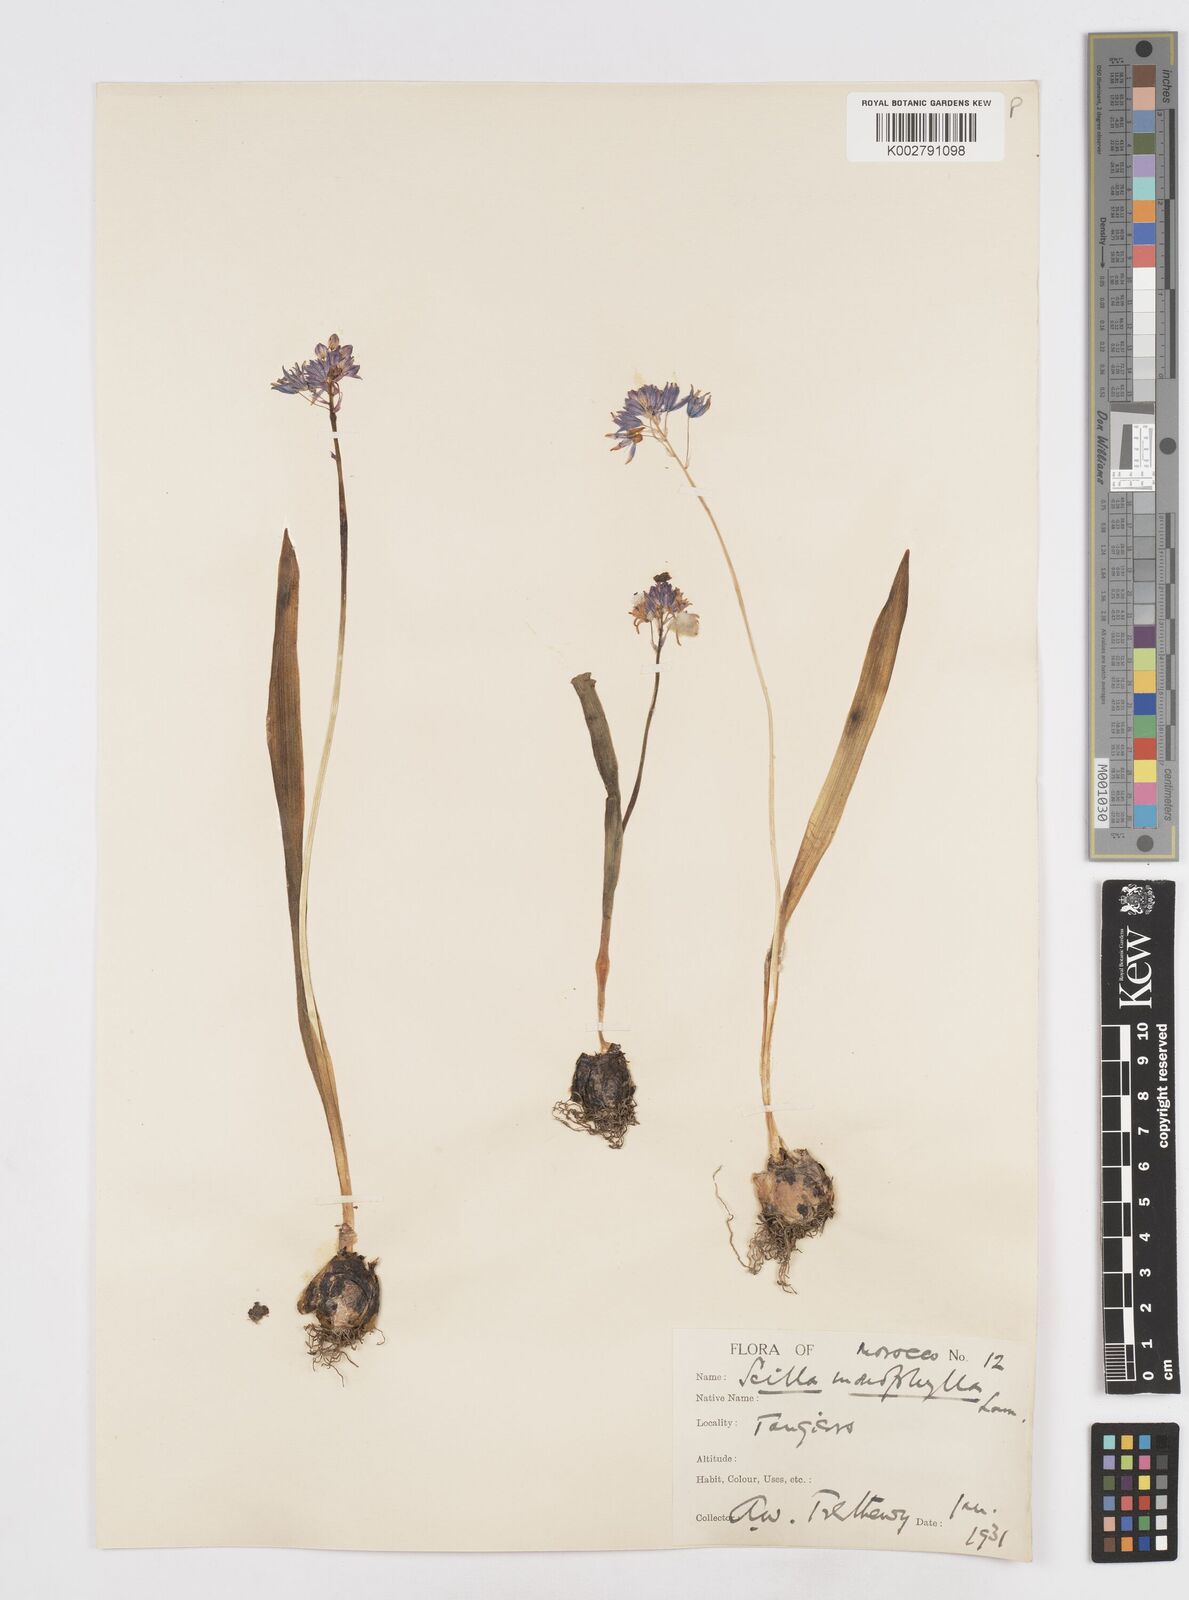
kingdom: Plantae
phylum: Tracheophyta
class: Liliopsida
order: Asparagales
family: Asparagaceae
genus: Scilla
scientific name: Scilla monophyllos
